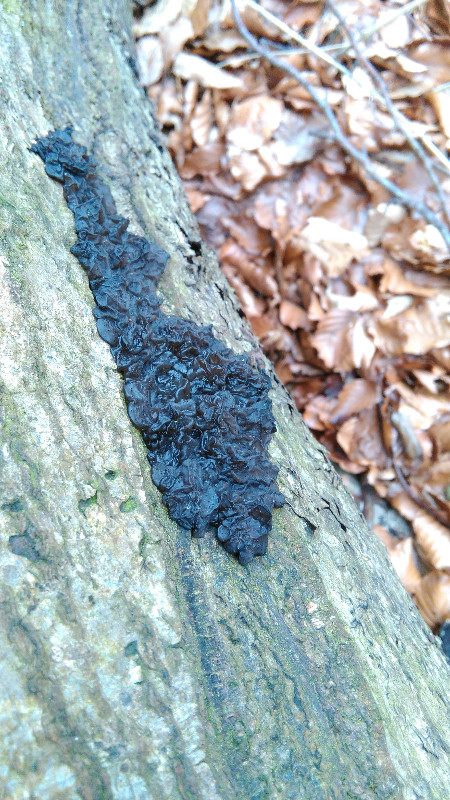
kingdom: Fungi
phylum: Basidiomycota
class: Agaricomycetes
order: Auriculariales
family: Auriculariaceae
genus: Exidia
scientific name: Exidia nigricans
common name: almindelig bævretop
